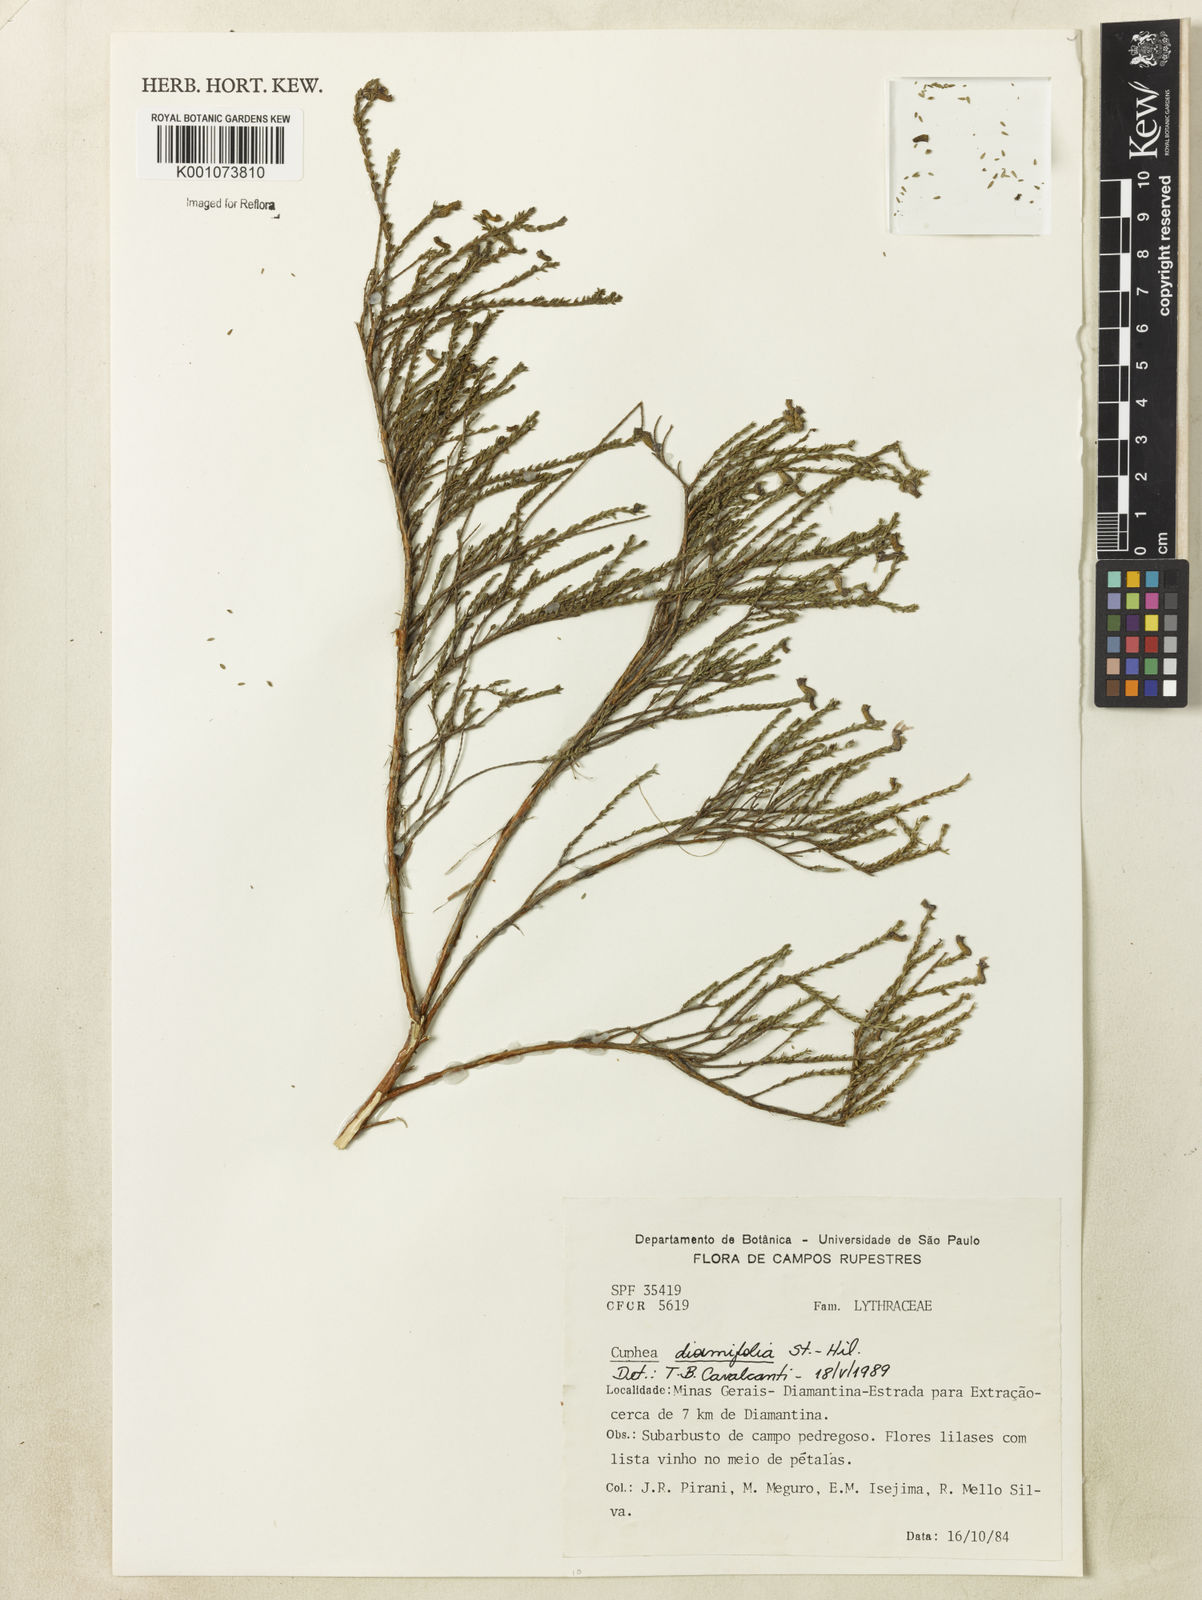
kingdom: Plantae
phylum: Tracheophyta
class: Magnoliopsida
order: Myrtales
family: Lythraceae
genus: Cuphea
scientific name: Cuphea diosmifolia
